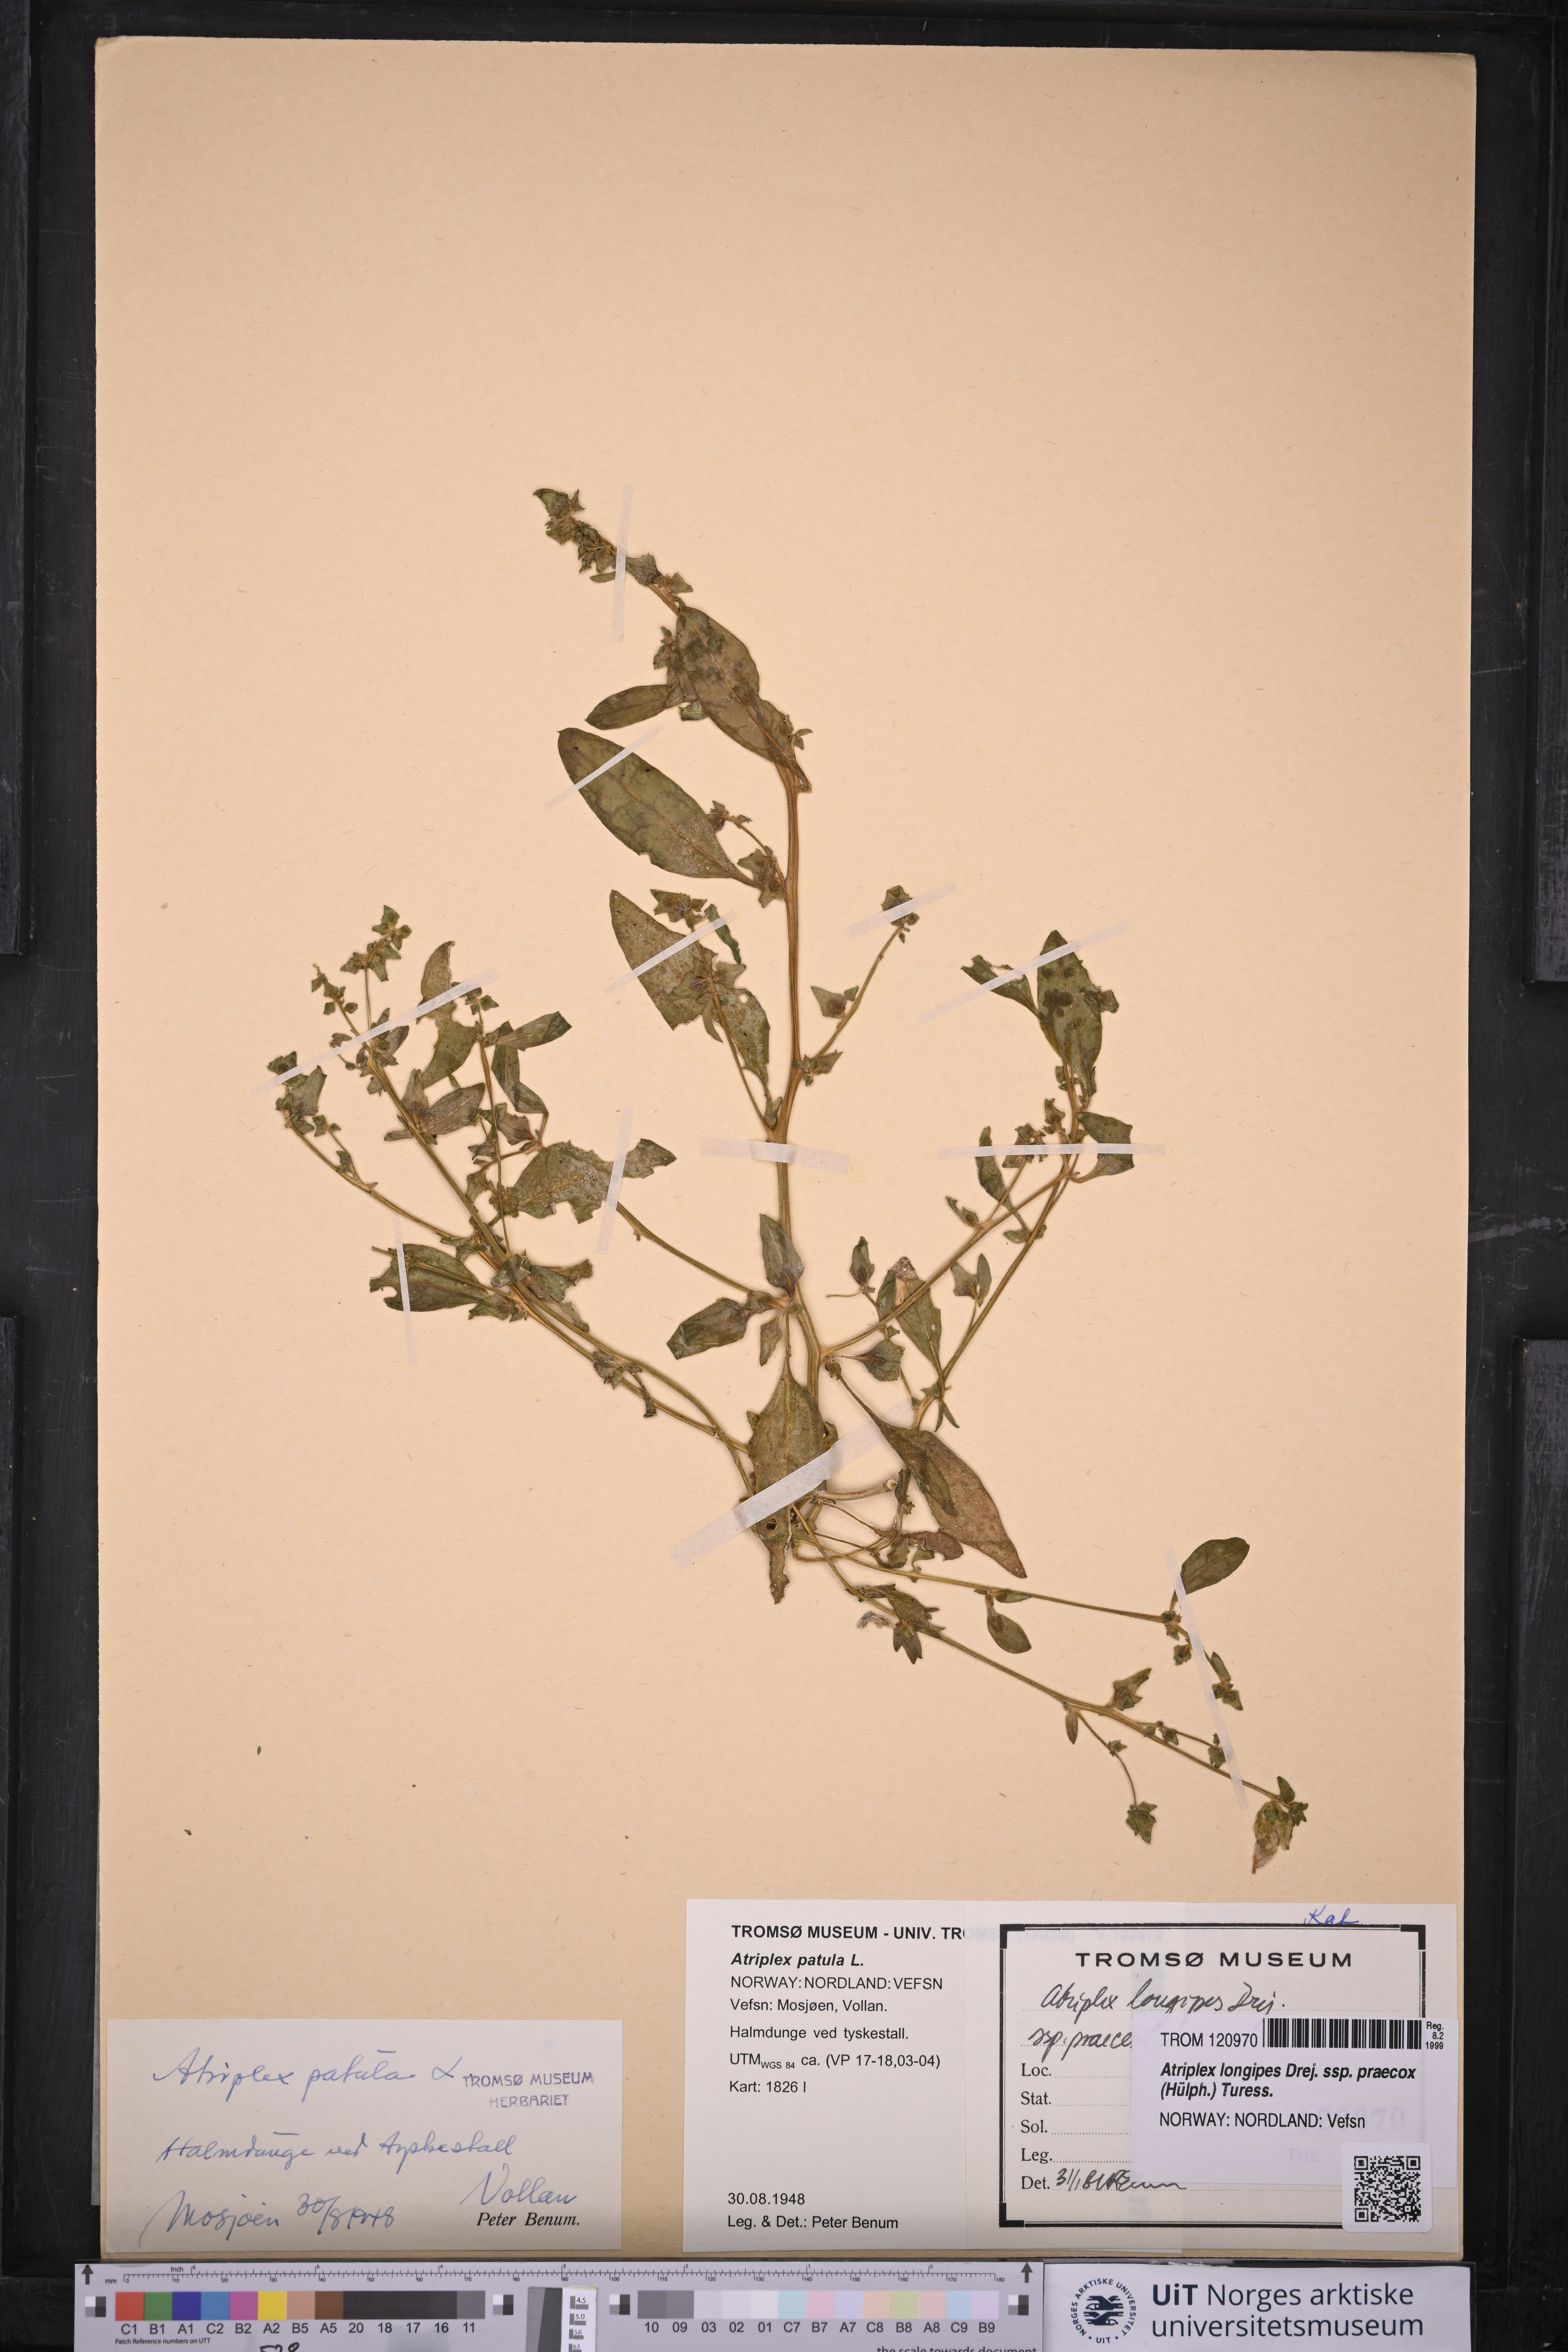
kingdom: Plantae
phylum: Tracheophyta
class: Magnoliopsida
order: Caryophyllales
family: Amaranthaceae
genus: Atriplex
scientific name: Atriplex praecox
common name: Early orache
